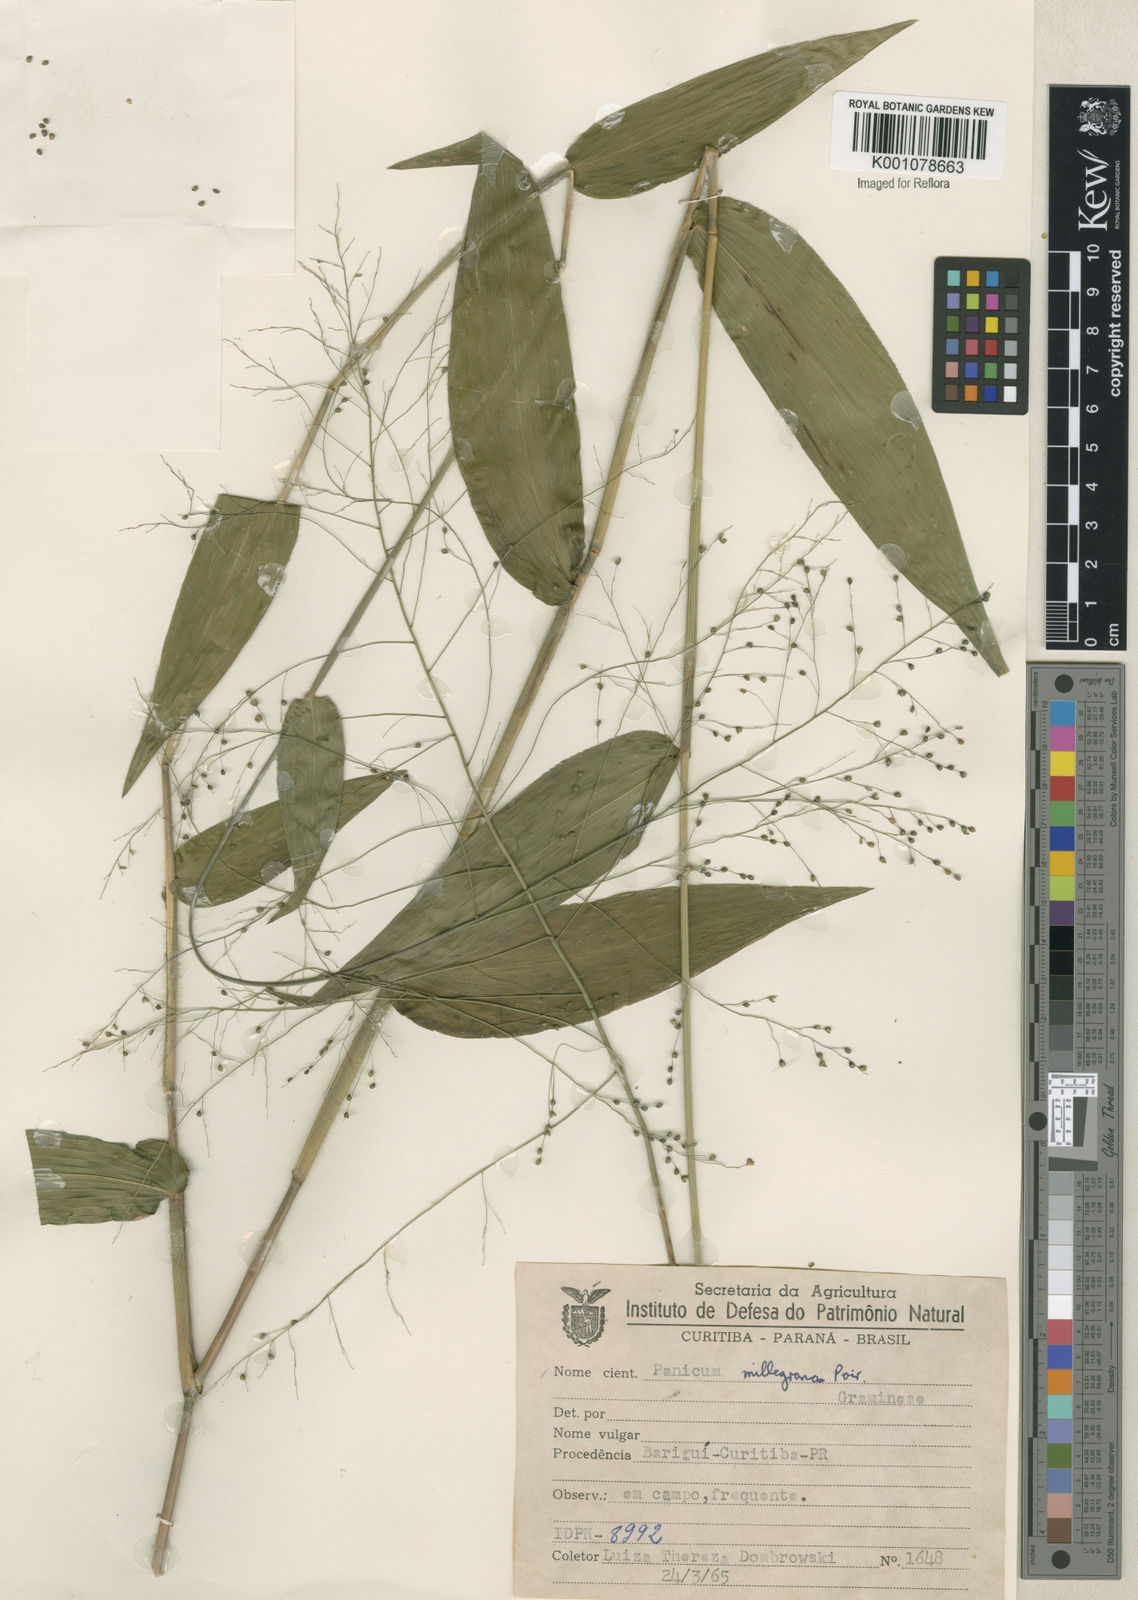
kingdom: Plantae
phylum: Tracheophyta
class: Liliopsida
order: Poales
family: Poaceae
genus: Panicum
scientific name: Panicum millegrana
